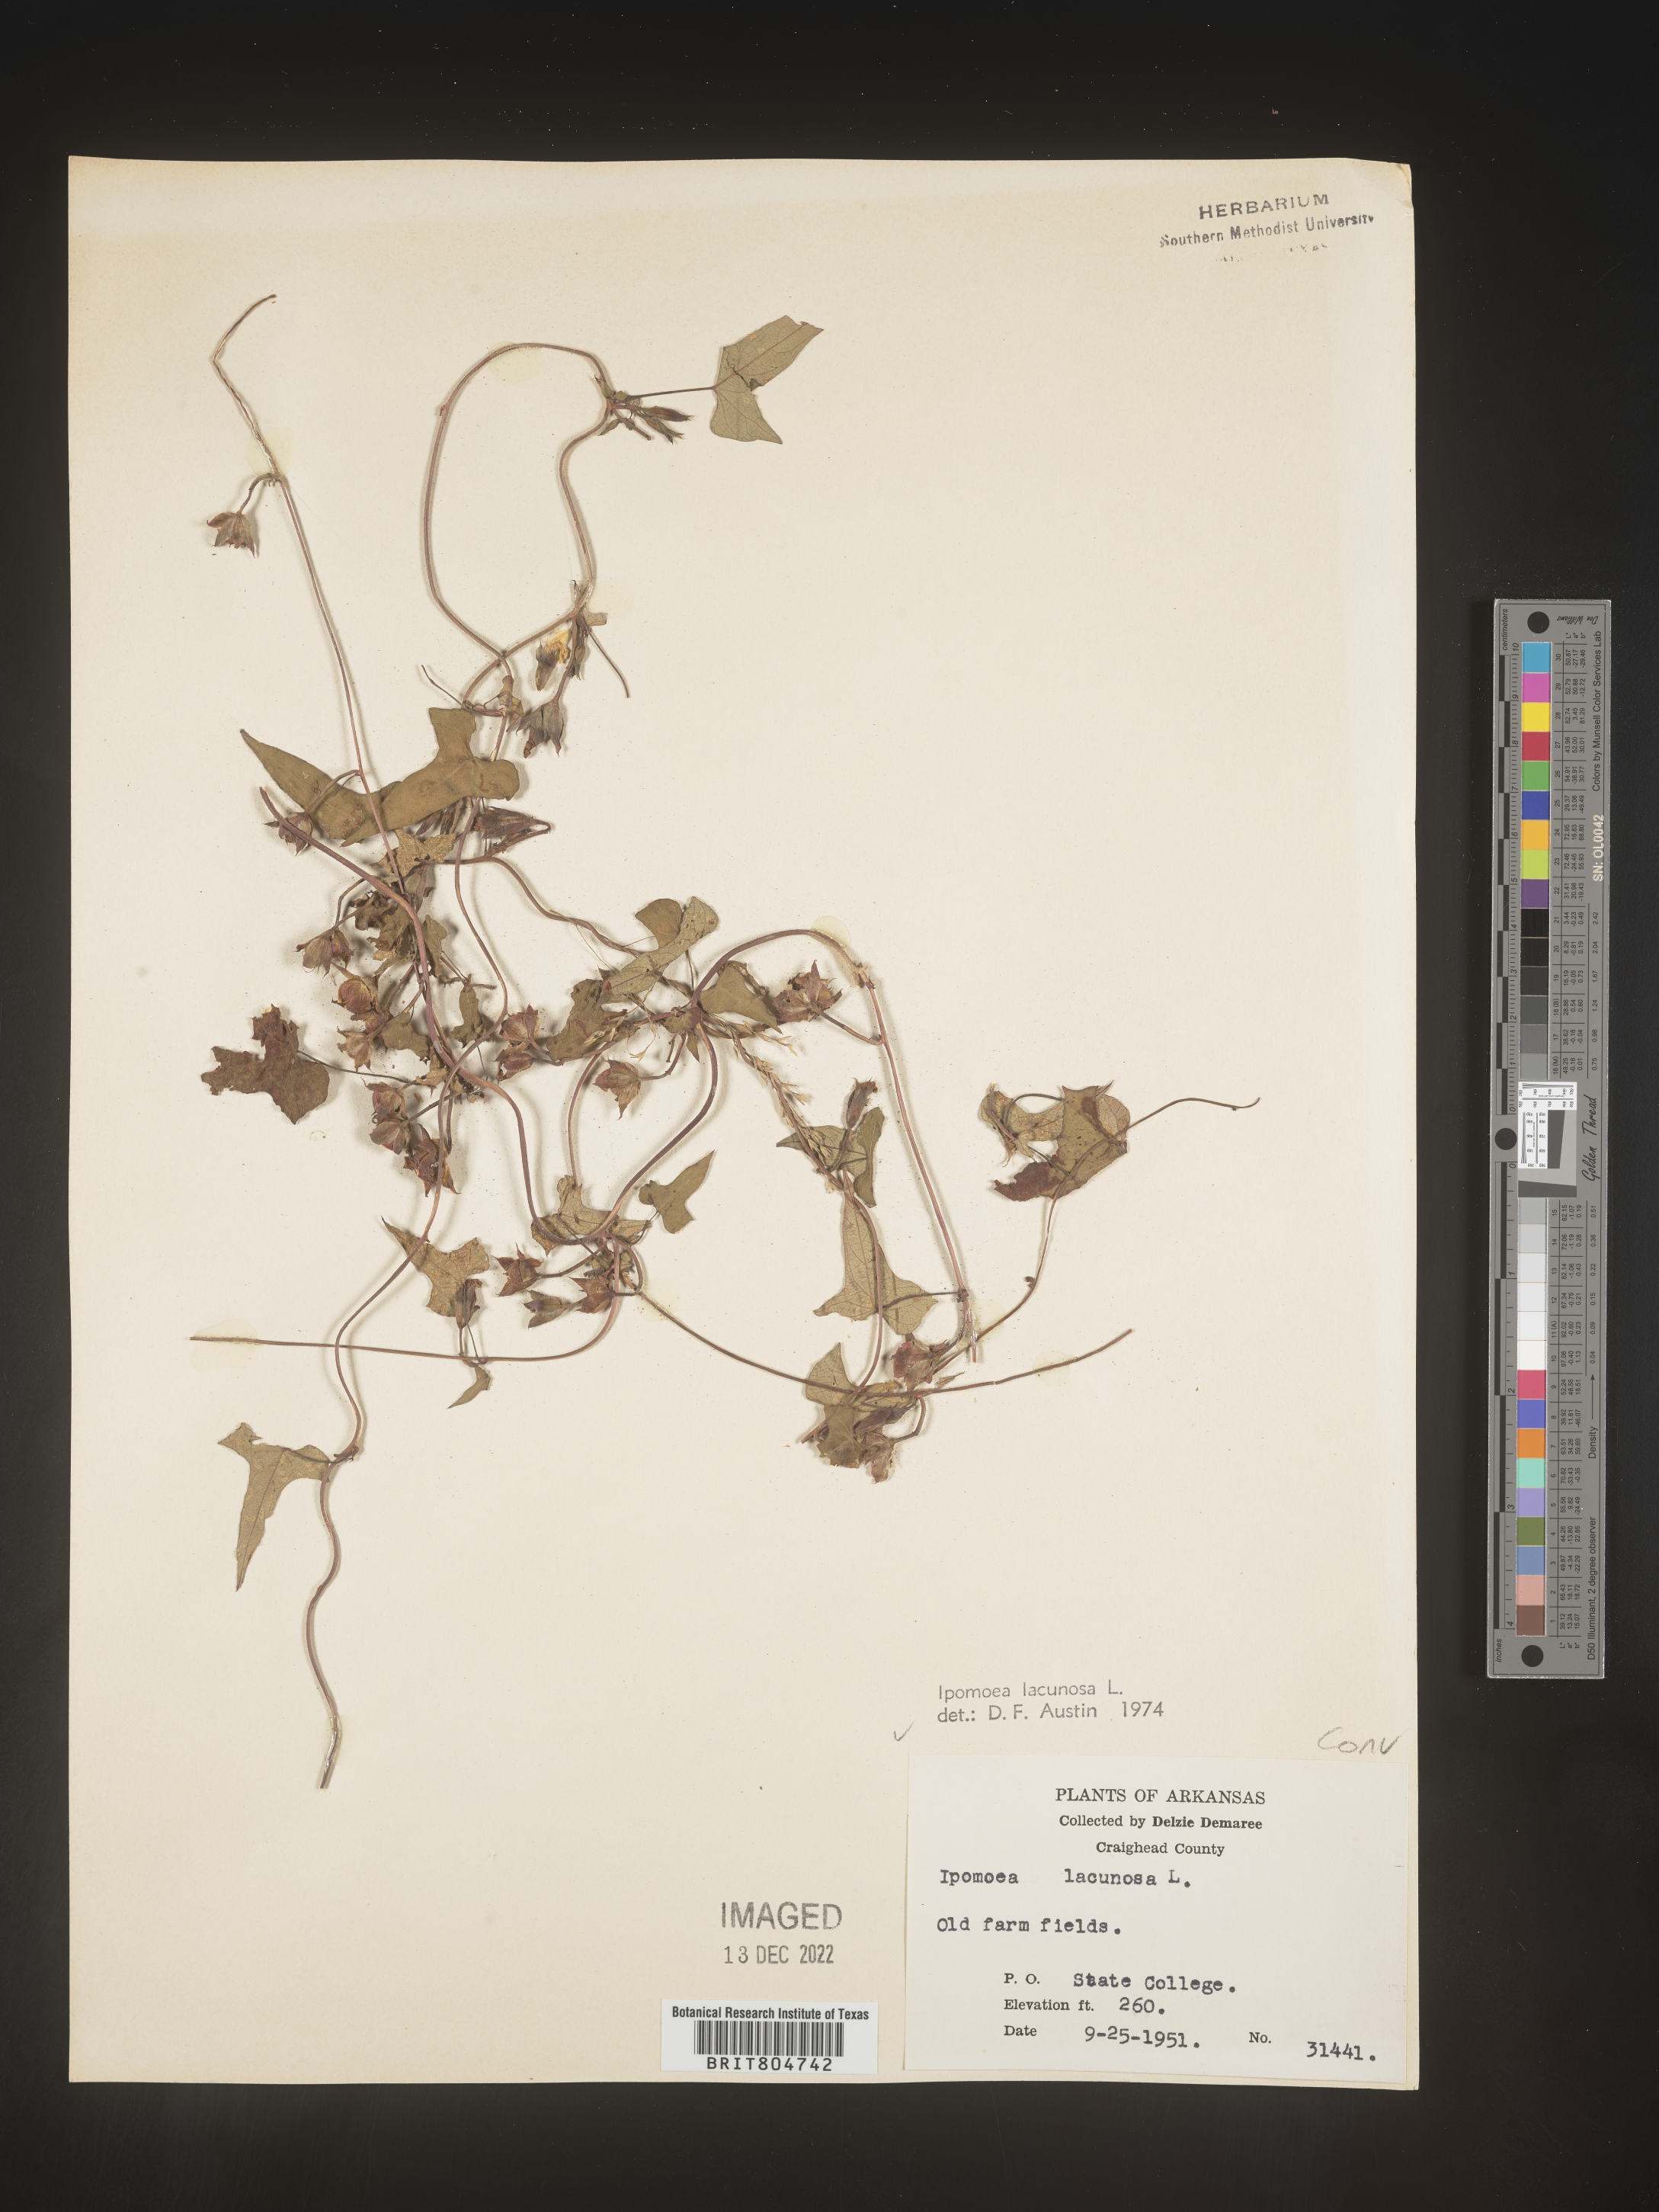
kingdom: Plantae
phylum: Tracheophyta
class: Magnoliopsida
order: Solanales
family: Convolvulaceae
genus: Ipomoea
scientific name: Ipomoea lacunosa
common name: White morning-glory
